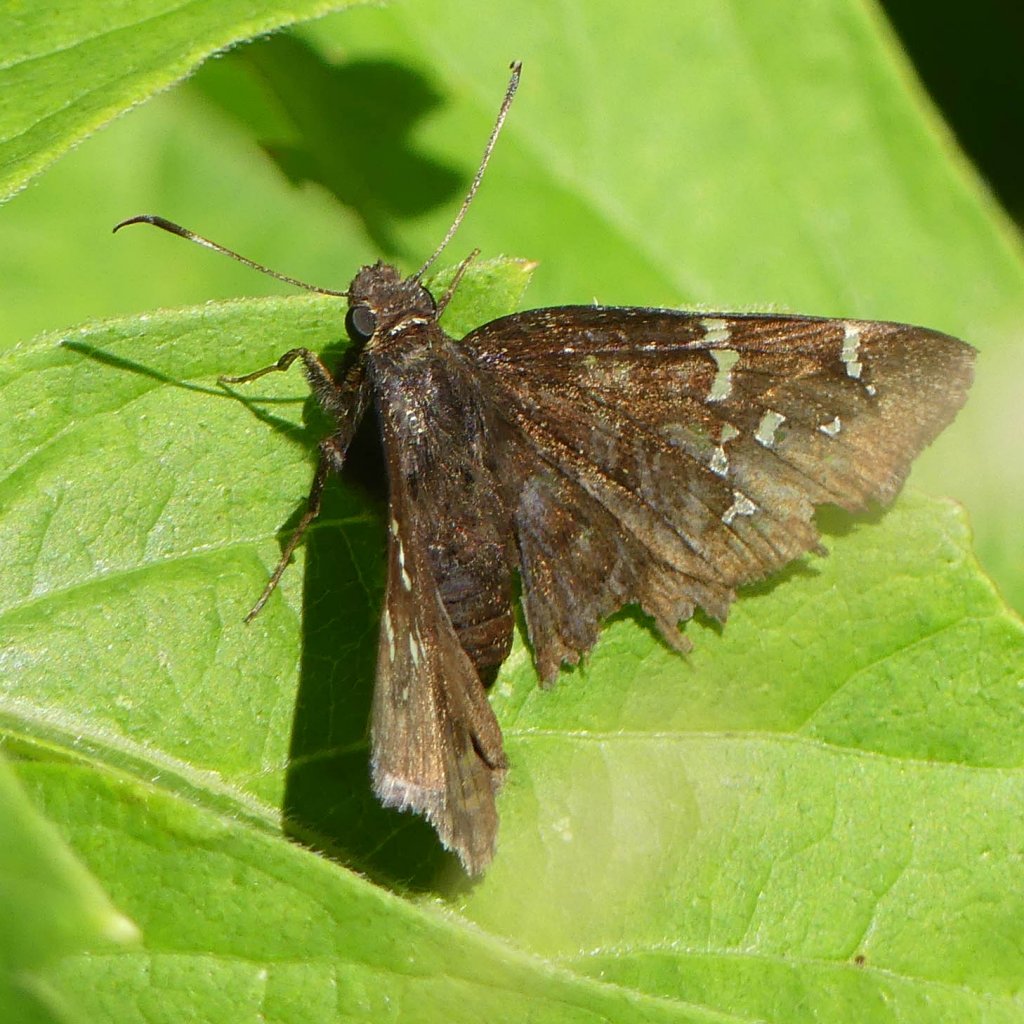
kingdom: Animalia
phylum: Arthropoda
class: Insecta
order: Lepidoptera
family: Hesperiidae
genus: Autochton
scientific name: Autochton
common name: Northern Cloudywing
